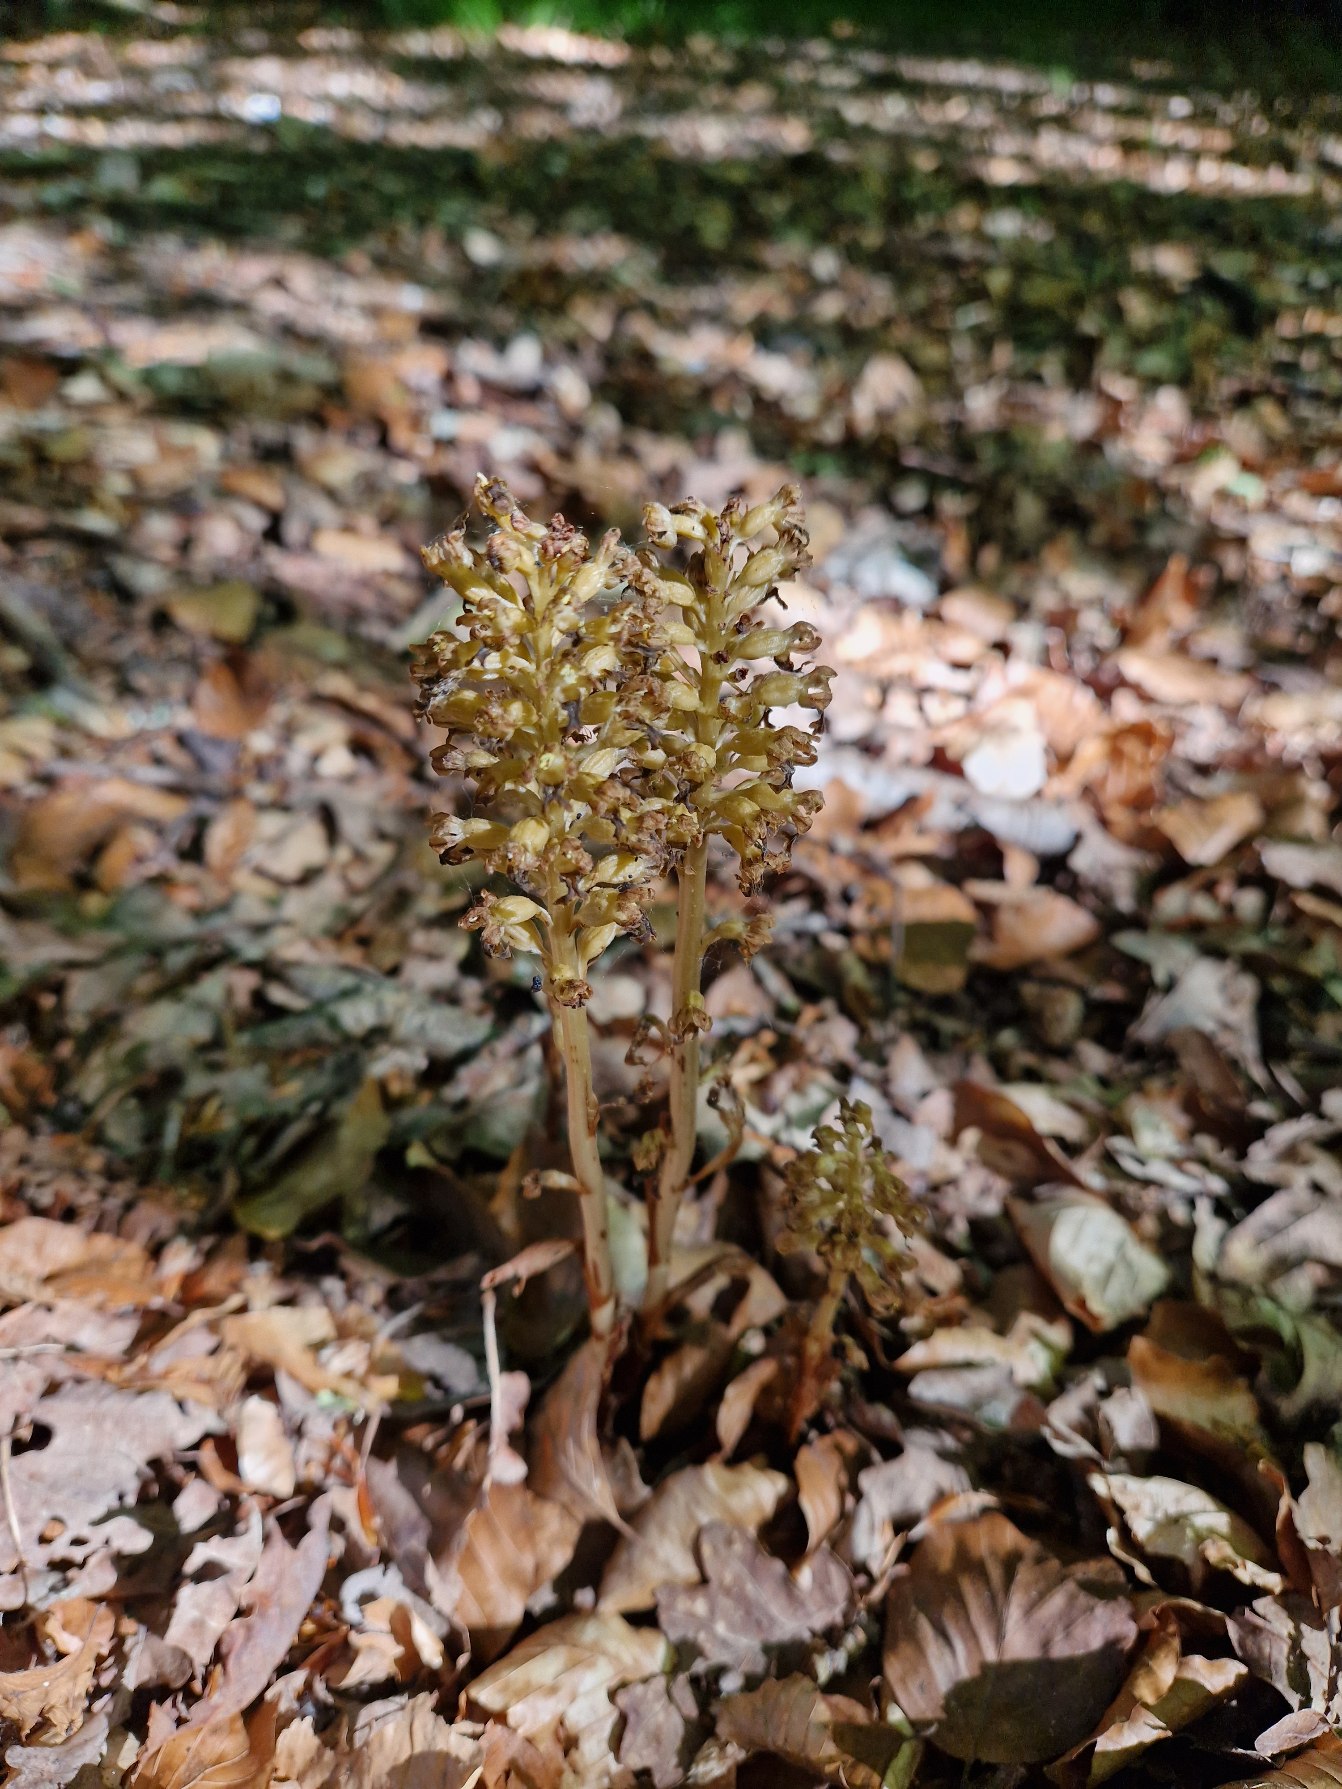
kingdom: Plantae
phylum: Tracheophyta
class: Liliopsida
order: Asparagales
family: Orchidaceae
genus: Neottia
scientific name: Neottia nidus-avis
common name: Rederod
